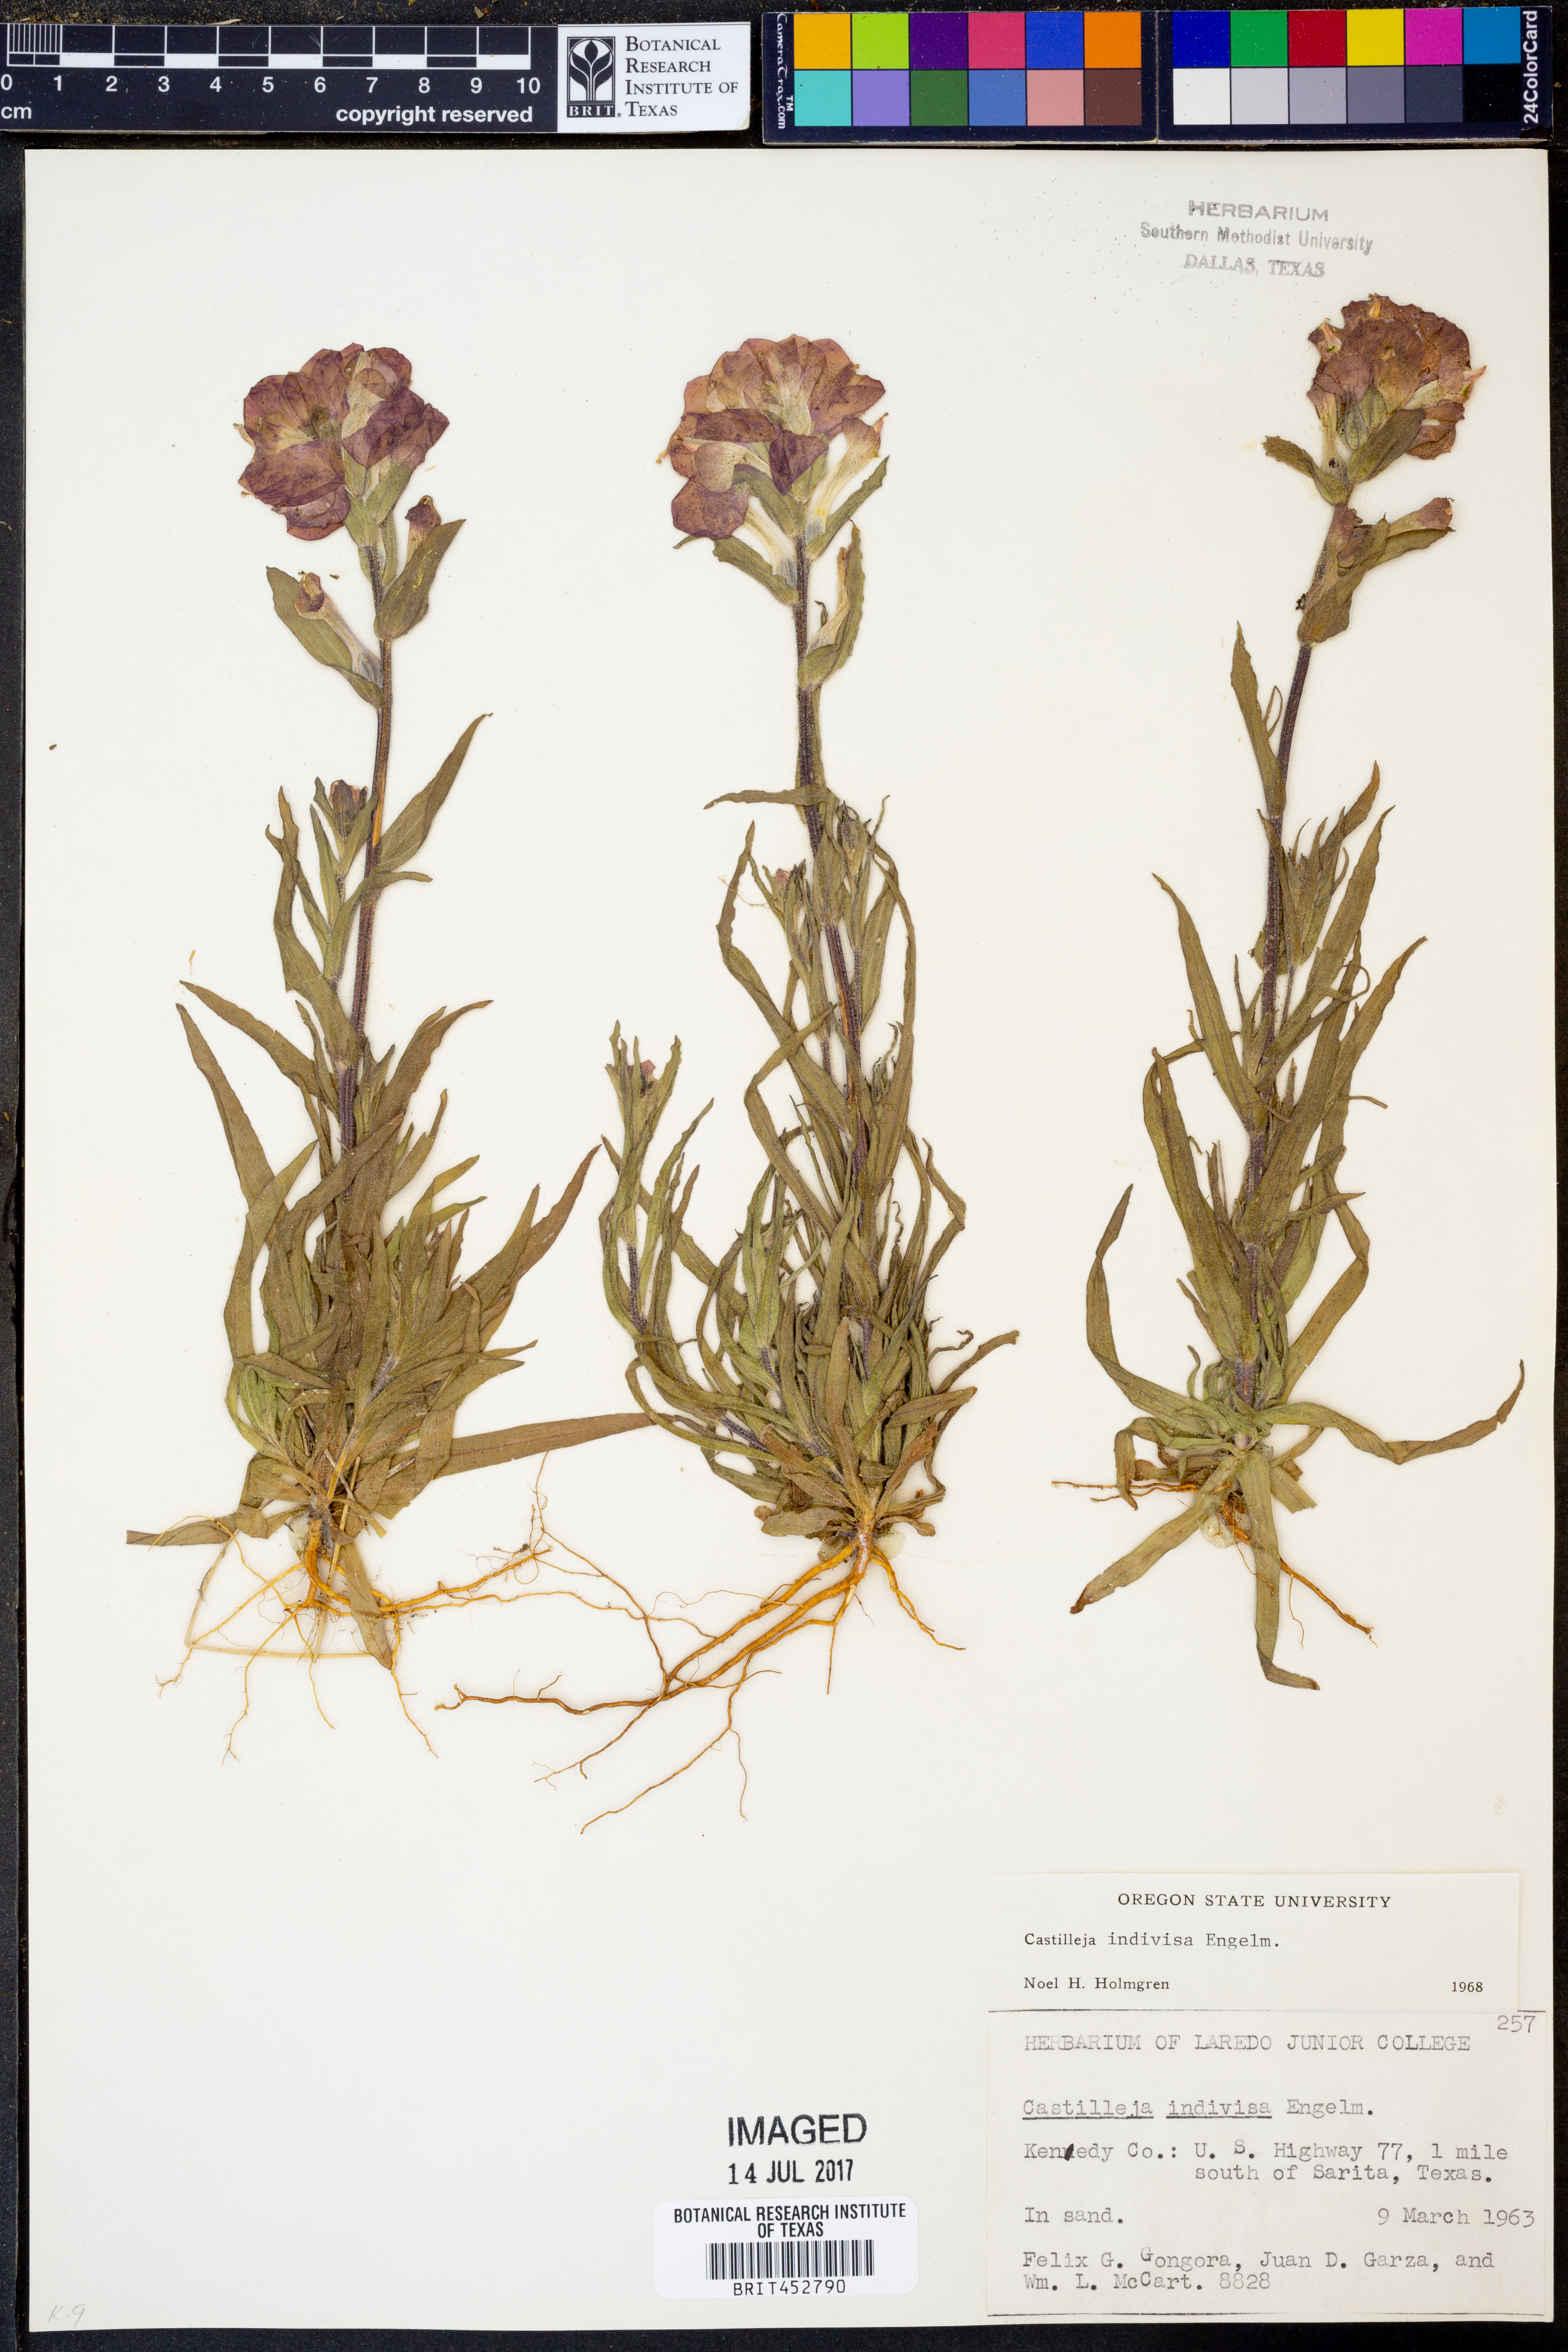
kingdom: Plantae
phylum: Tracheophyta
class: Magnoliopsida
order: Lamiales
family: Orobanchaceae
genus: Castilleja
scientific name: Castilleja indivisa
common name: Texas paintbrush
